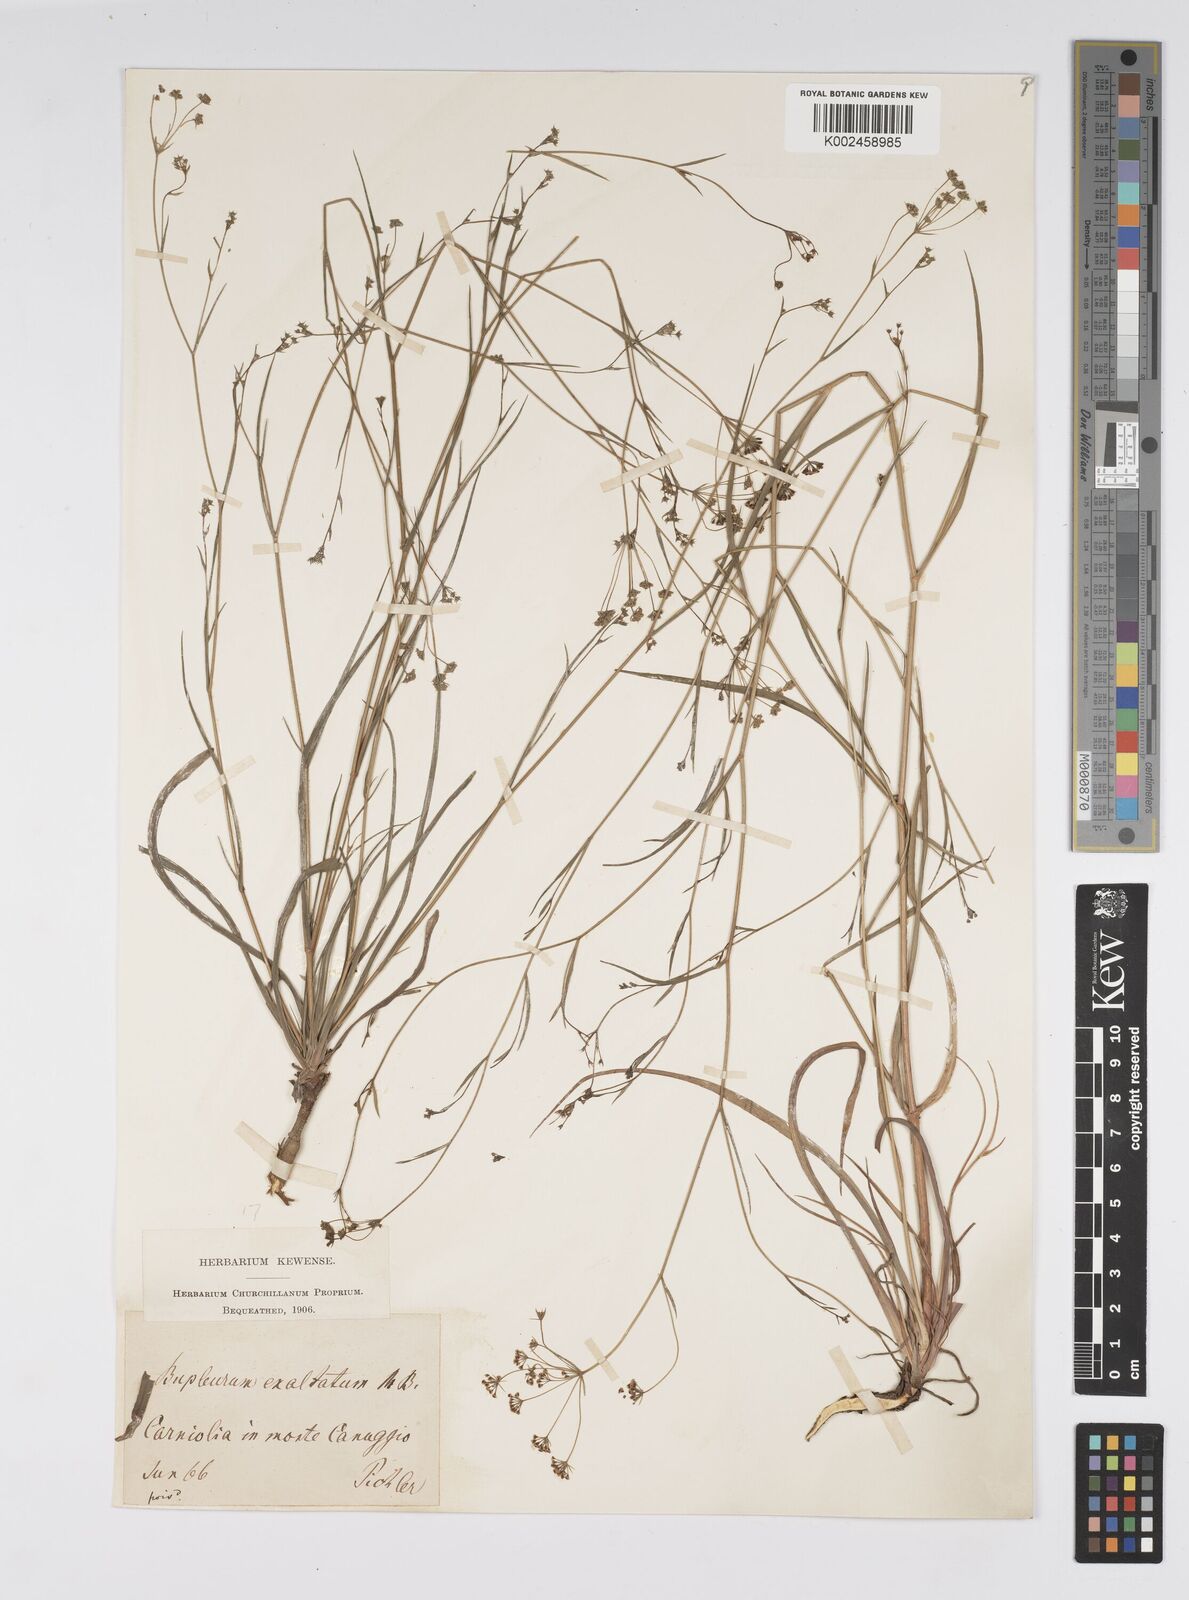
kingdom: Plantae
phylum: Tracheophyta
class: Magnoliopsida
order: Apiales
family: Apiaceae
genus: Bupleurum
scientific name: Bupleurum falcatum
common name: Sickle-leaved hare's-ear
